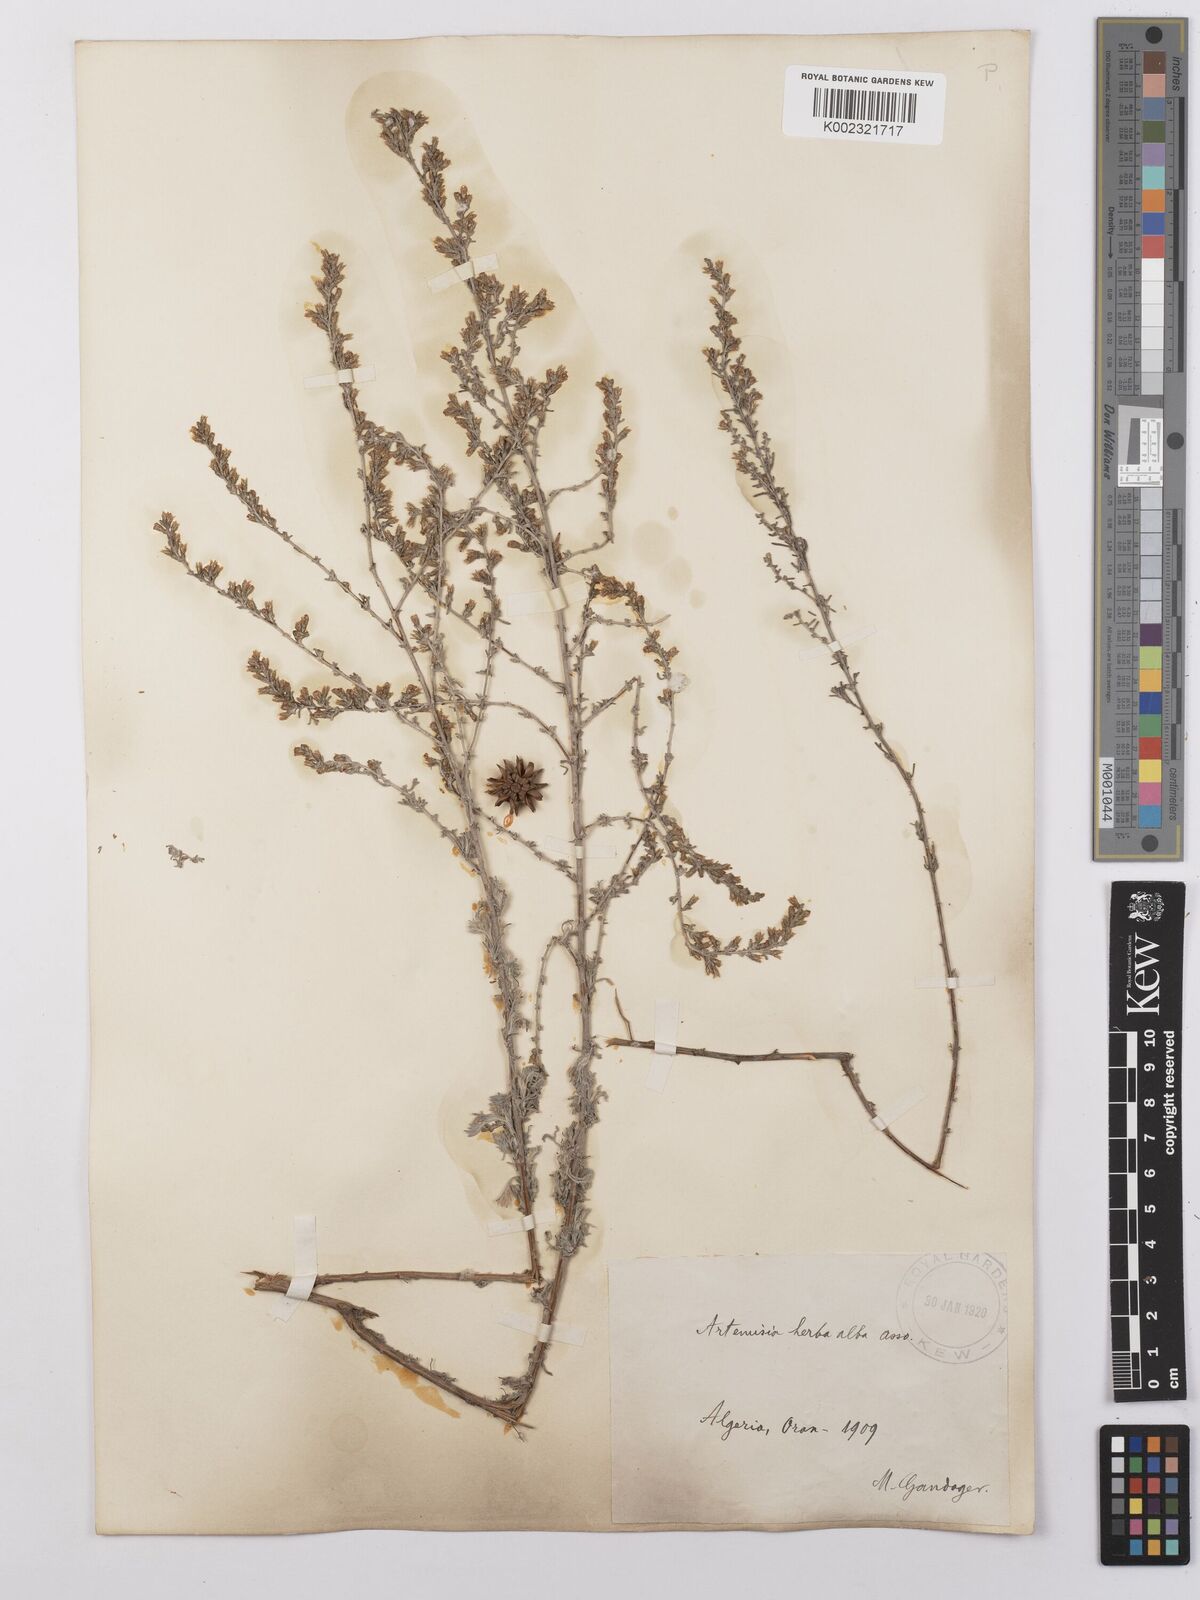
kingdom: Plantae
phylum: Tracheophyta
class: Magnoliopsida
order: Asterales
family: Asteraceae
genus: Artemisia
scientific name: Artemisia herba-alba
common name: White wormwood
